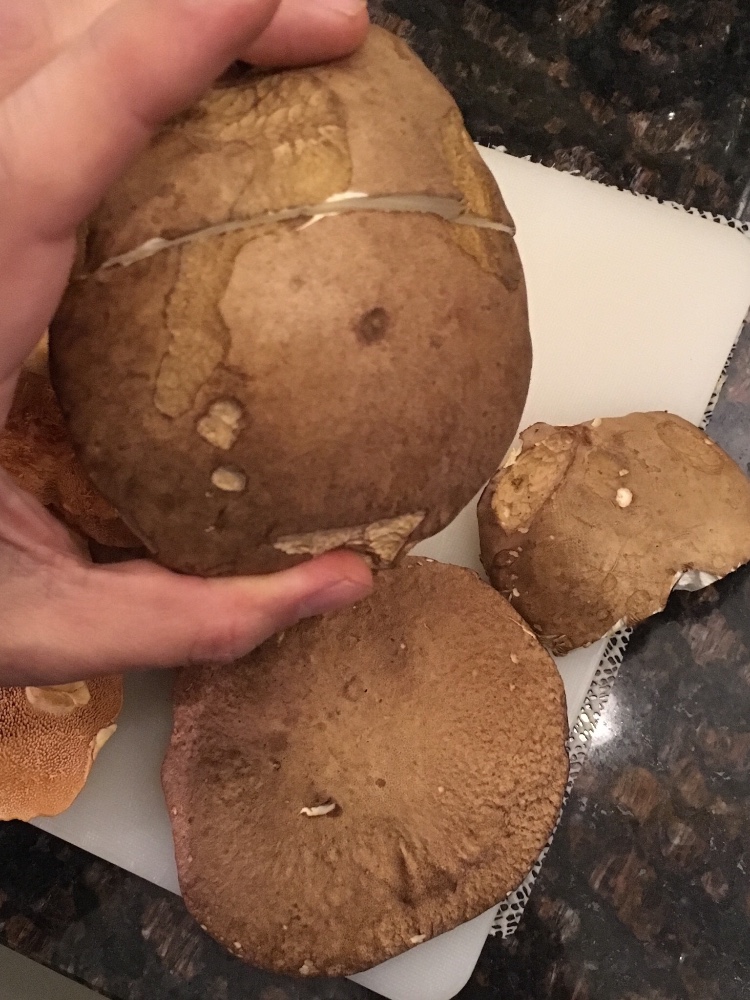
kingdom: Fungi
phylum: Basidiomycota
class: Agaricomycetes
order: Boletales
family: Boletaceae
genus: Boletus
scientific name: Boletus reticulatus
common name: sommer-rørhat
